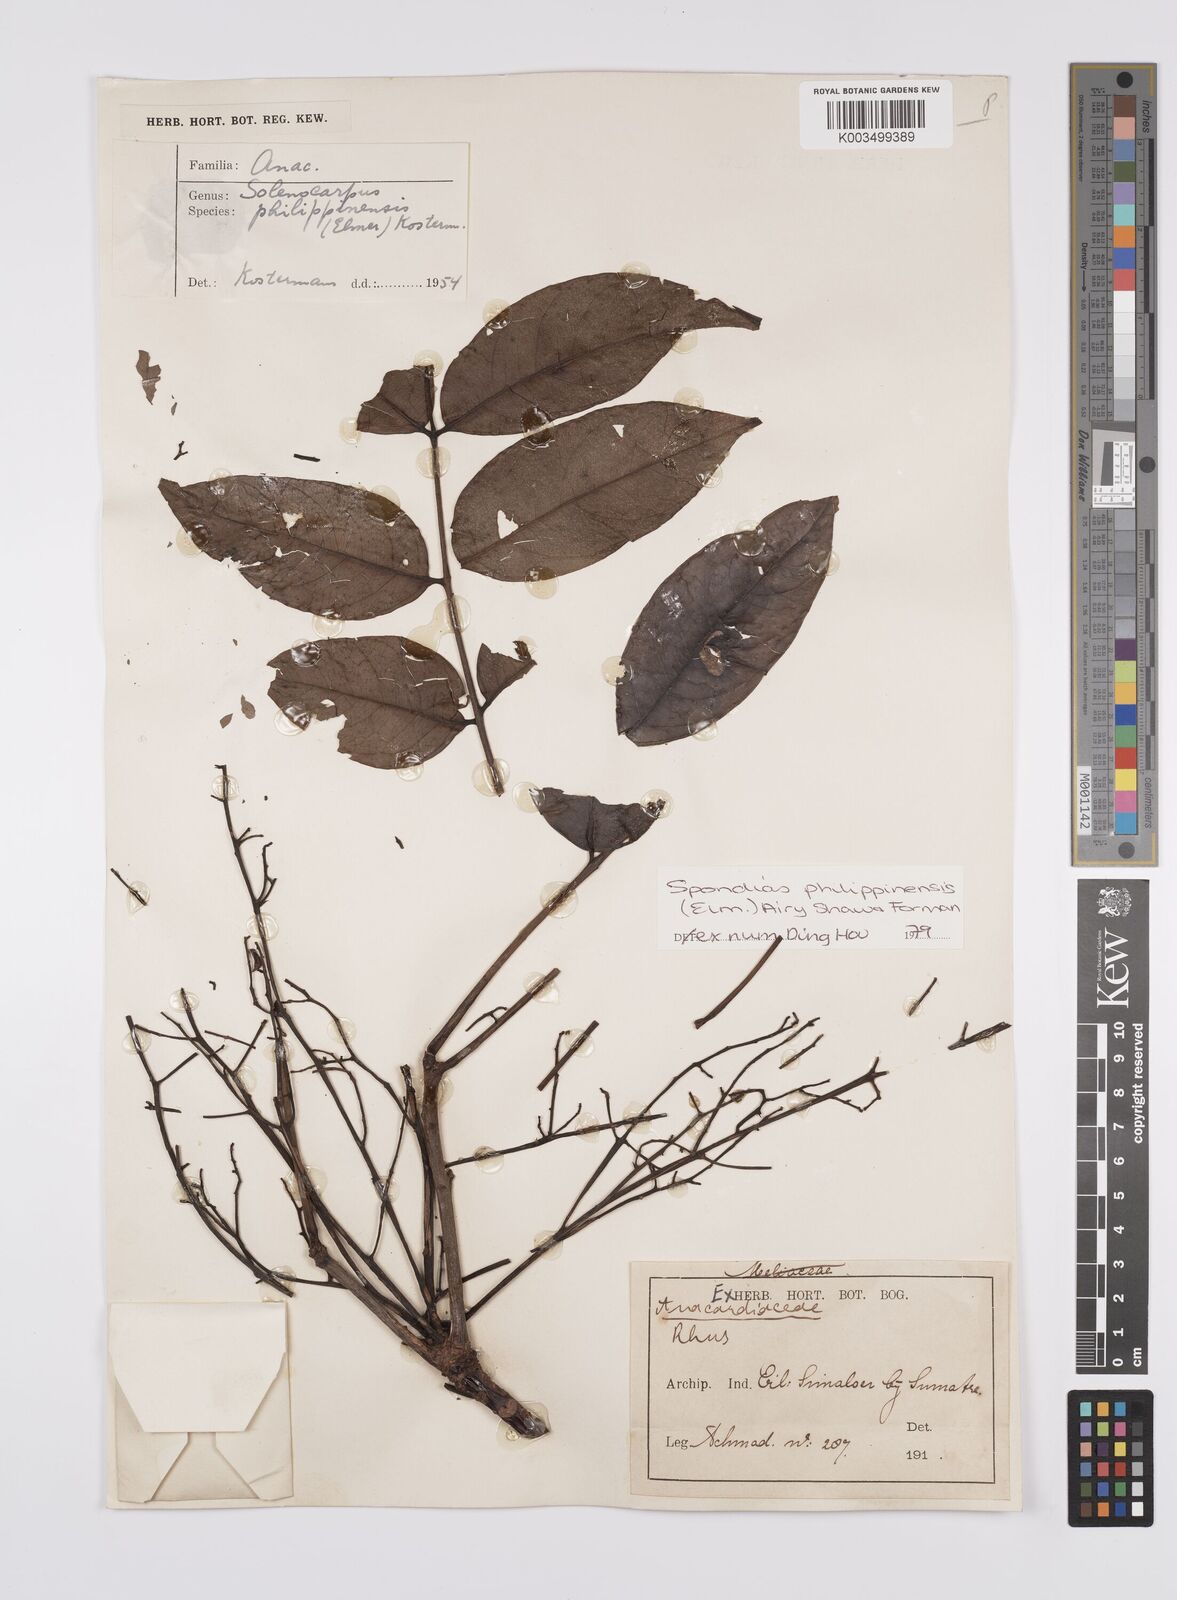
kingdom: Plantae
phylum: Tracheophyta
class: Magnoliopsida
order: Sapindales
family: Anacardiaceae
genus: Spondias
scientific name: Spondias philippinensis
